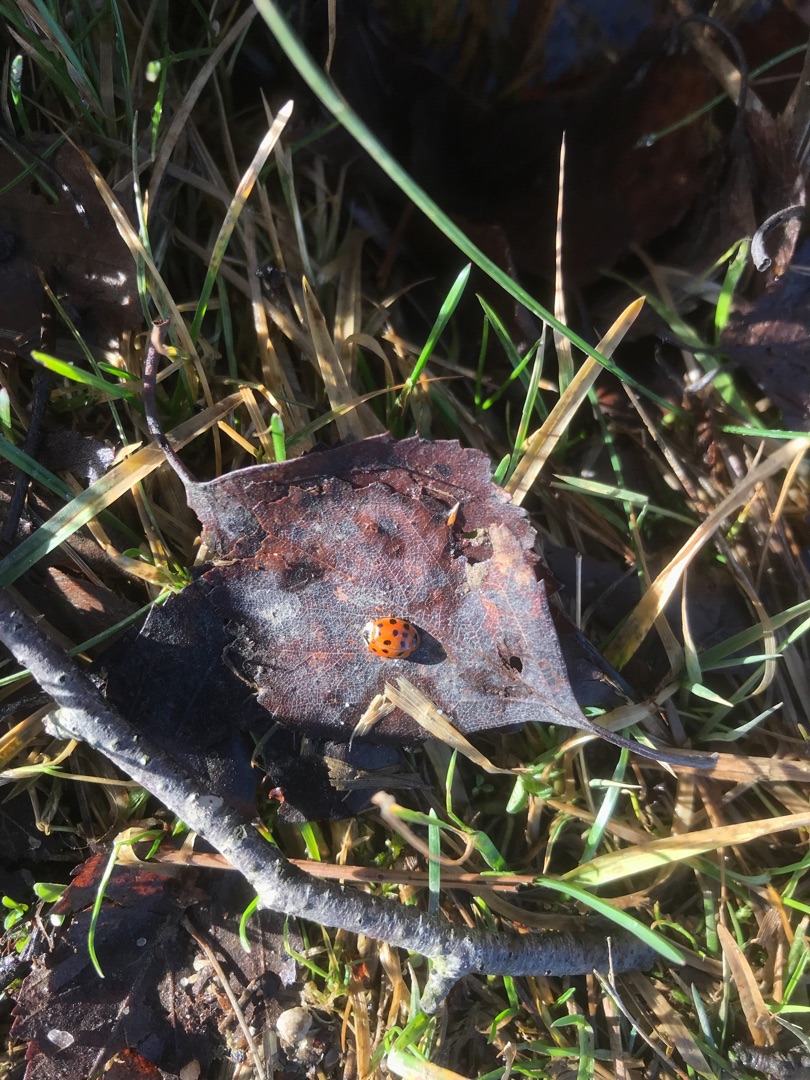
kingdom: Animalia
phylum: Arthropoda
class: Insecta
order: Coleoptera
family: Coccinellidae
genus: Harmonia
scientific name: Harmonia axyridis
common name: Harlekinmariehøne
